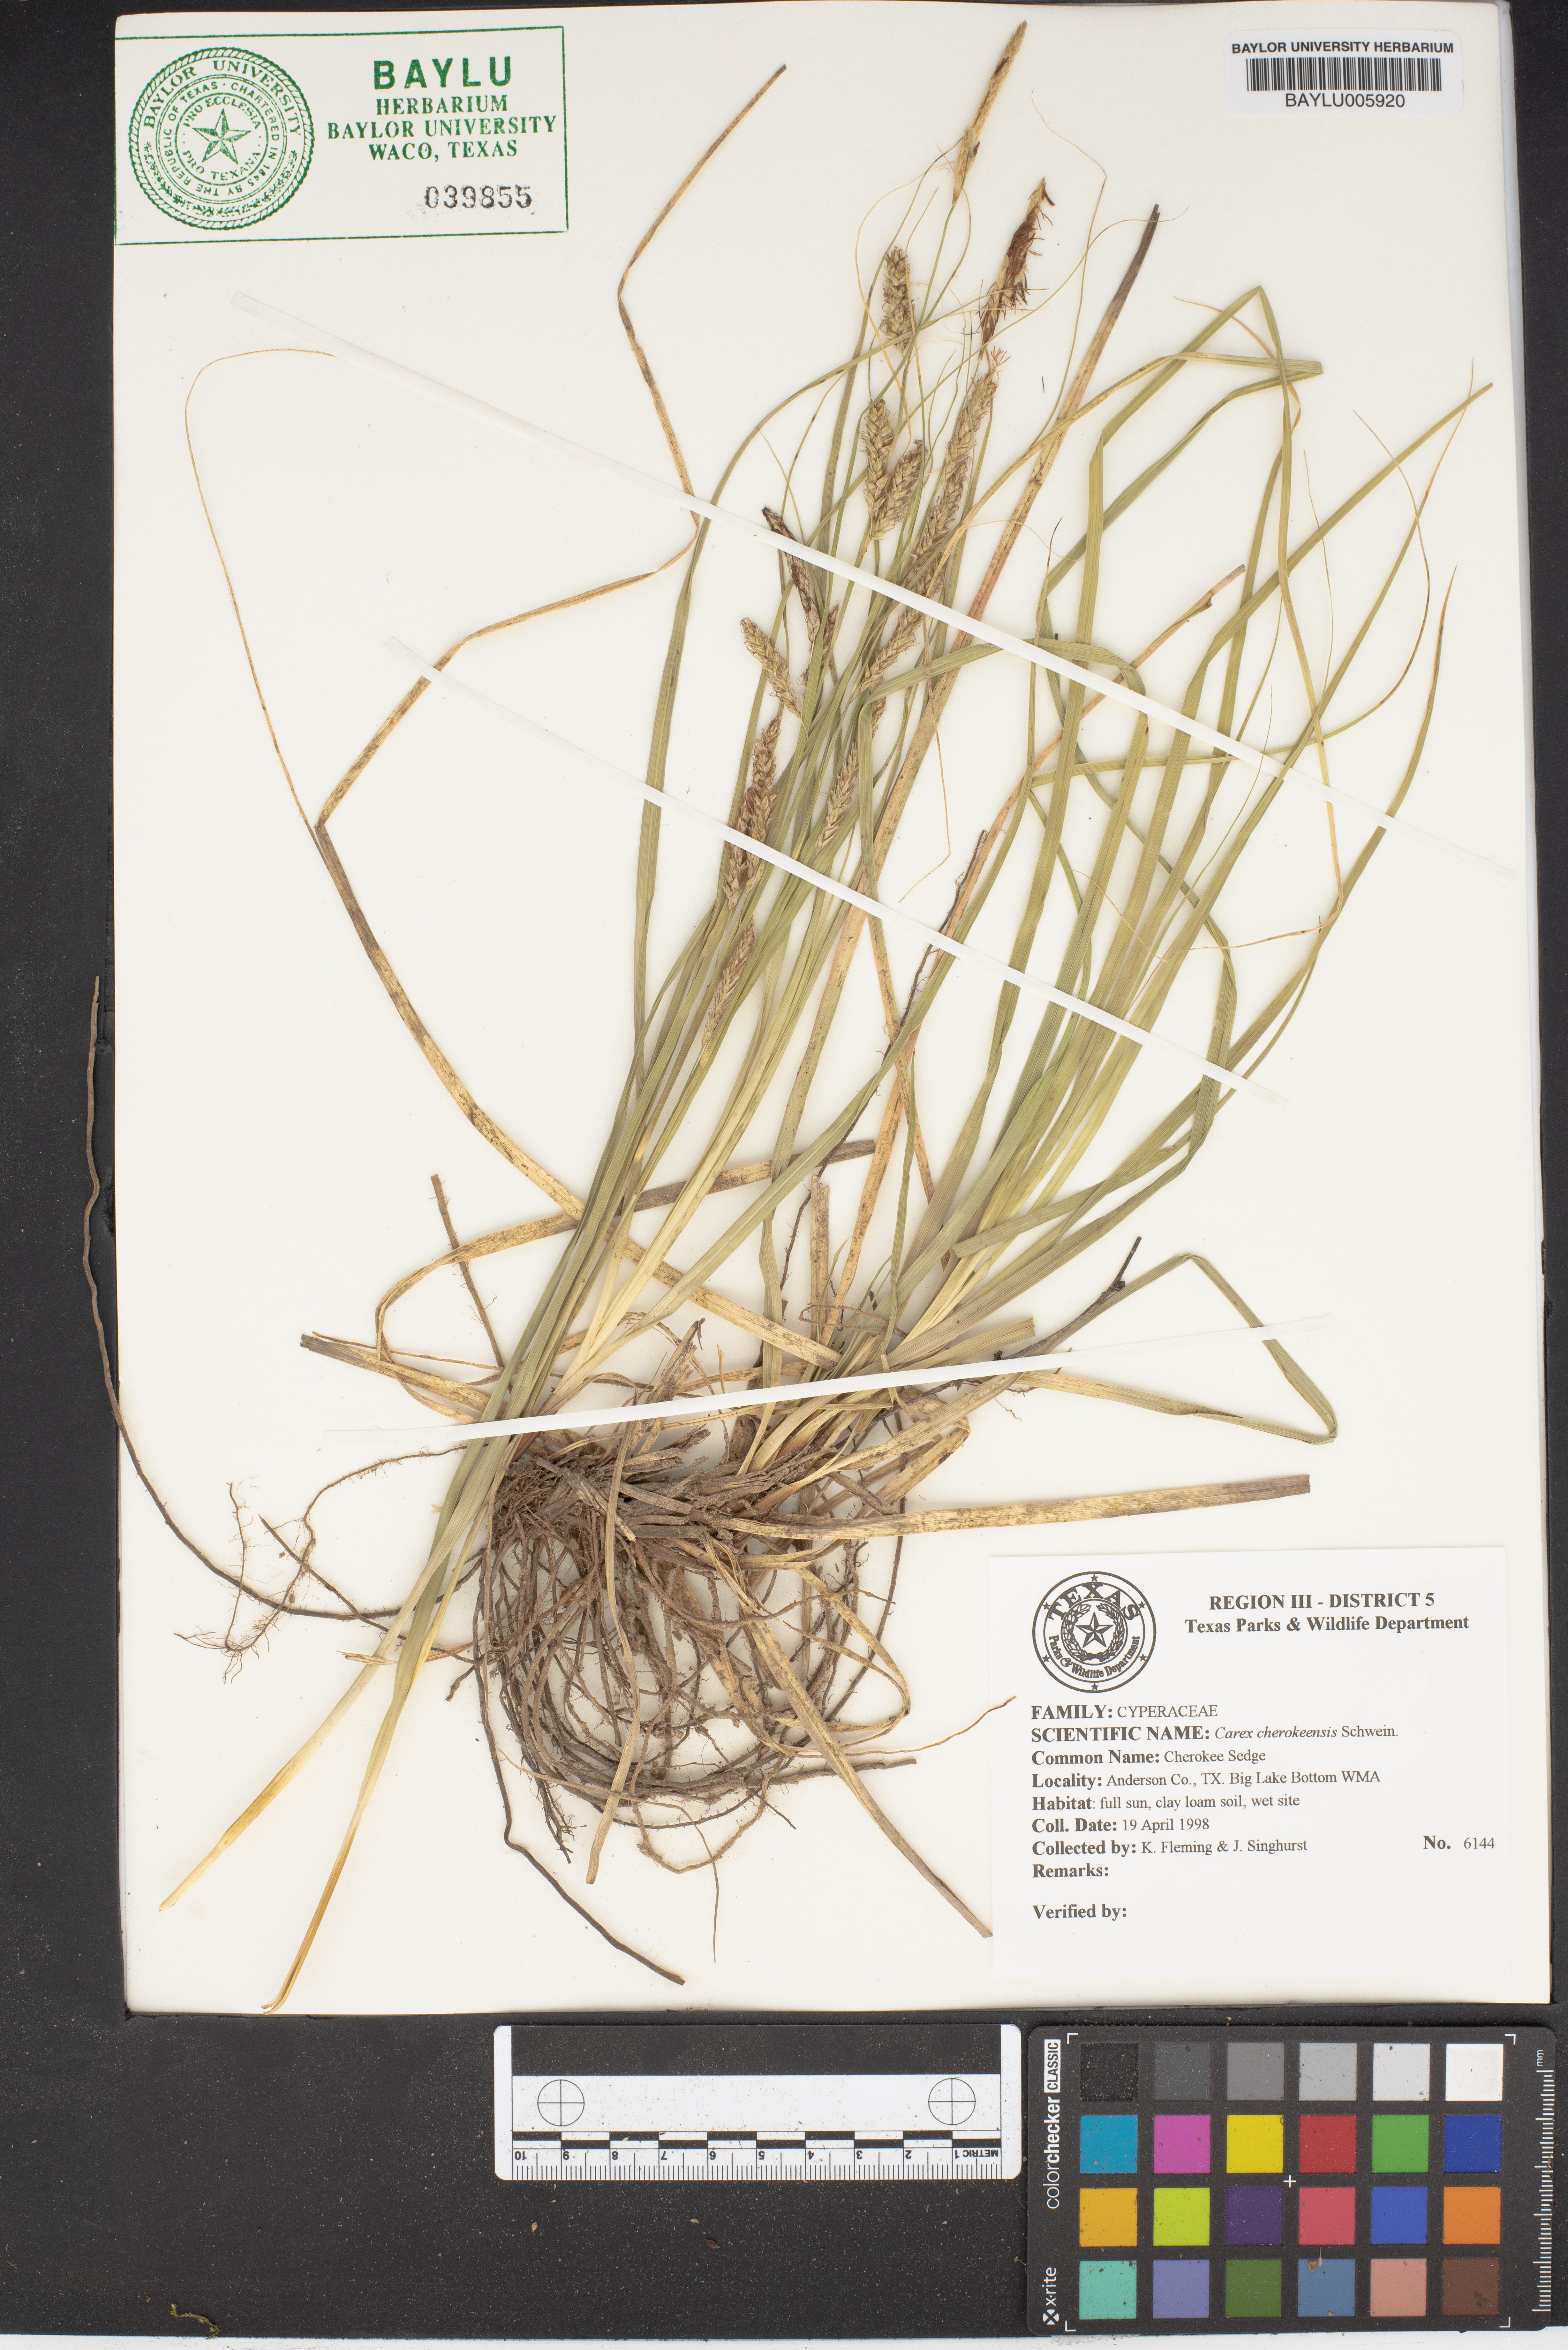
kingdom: Plantae
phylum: Tracheophyta
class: Liliopsida
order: Poales
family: Cyperaceae
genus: Carex
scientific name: Carex cherokeensis
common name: Cherokee sedge
